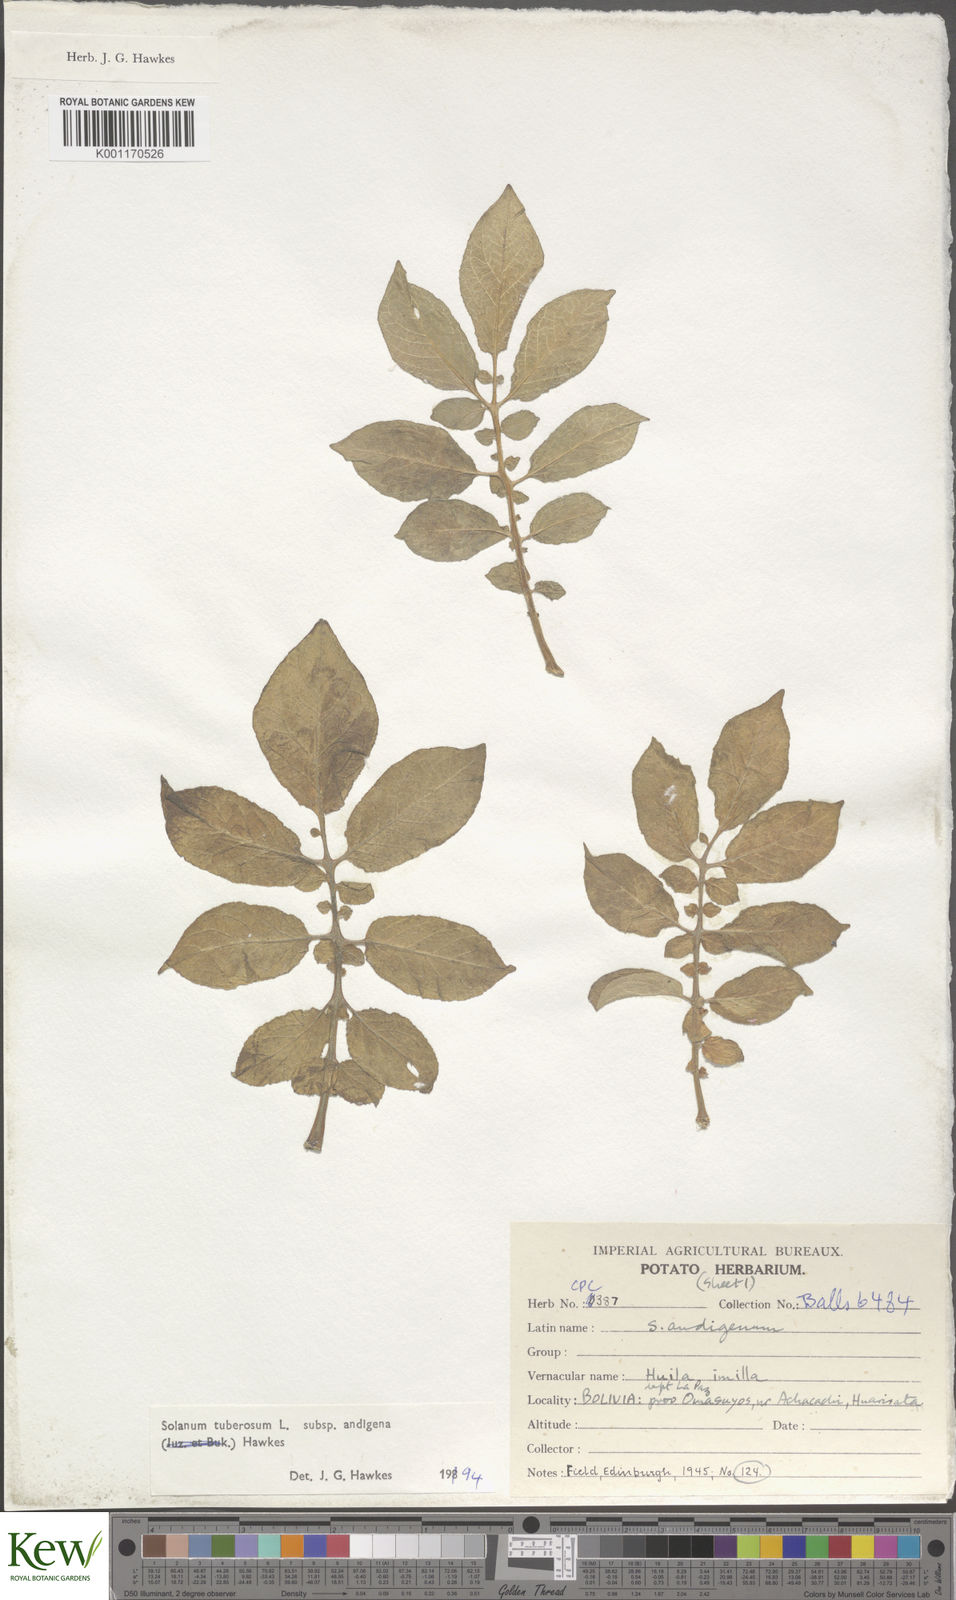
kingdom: Plantae
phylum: Tracheophyta
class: Magnoliopsida
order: Solanales
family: Solanaceae
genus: Solanum
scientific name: Solanum tuberosum
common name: Potato
